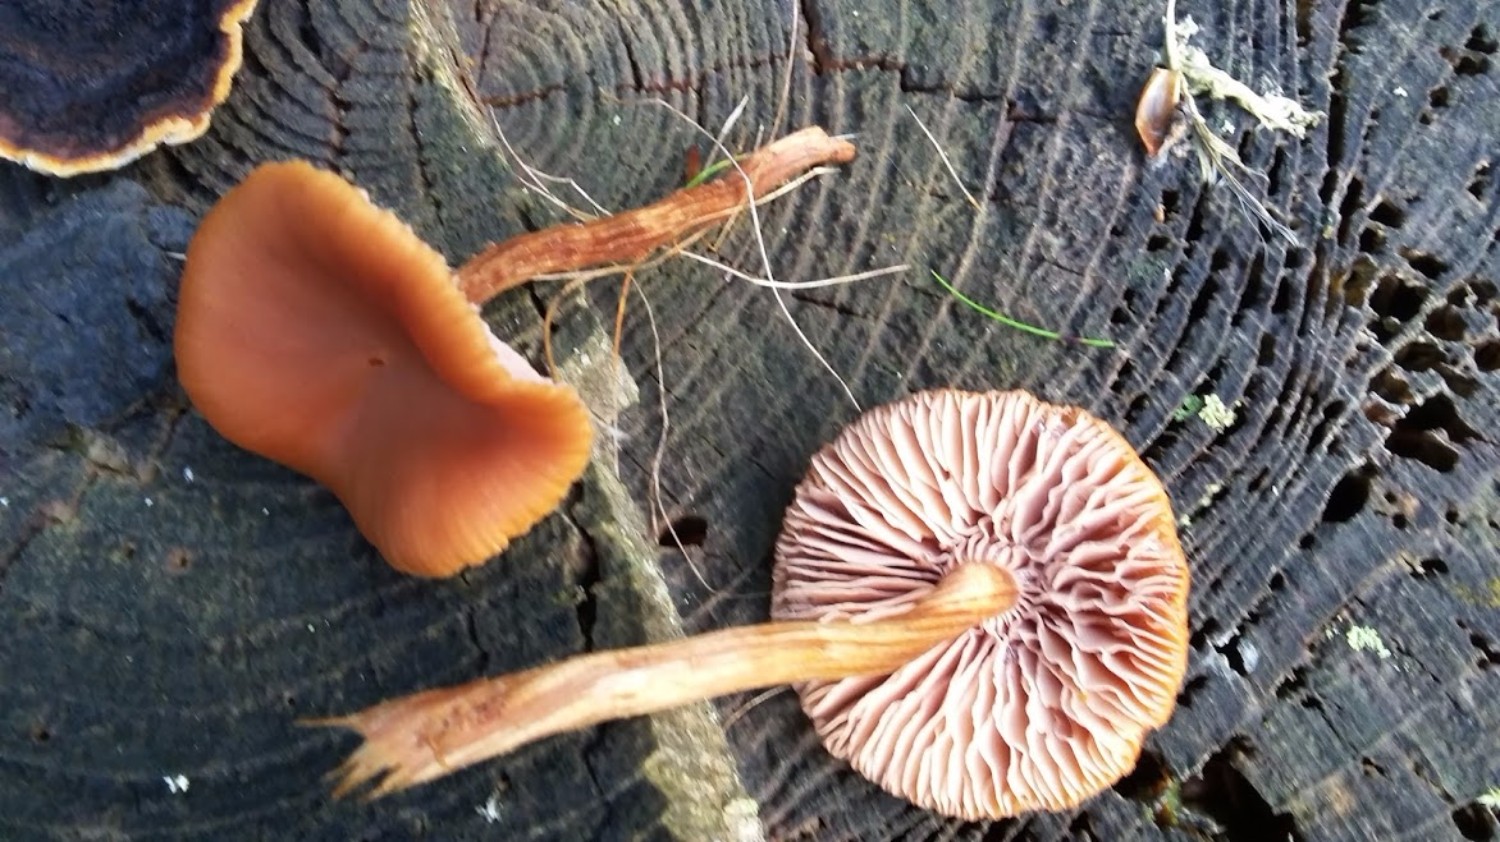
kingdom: Fungi
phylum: Basidiomycota
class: Agaricomycetes
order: Agaricales
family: Hydnangiaceae
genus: Laccaria
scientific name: Laccaria
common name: ametysthat
